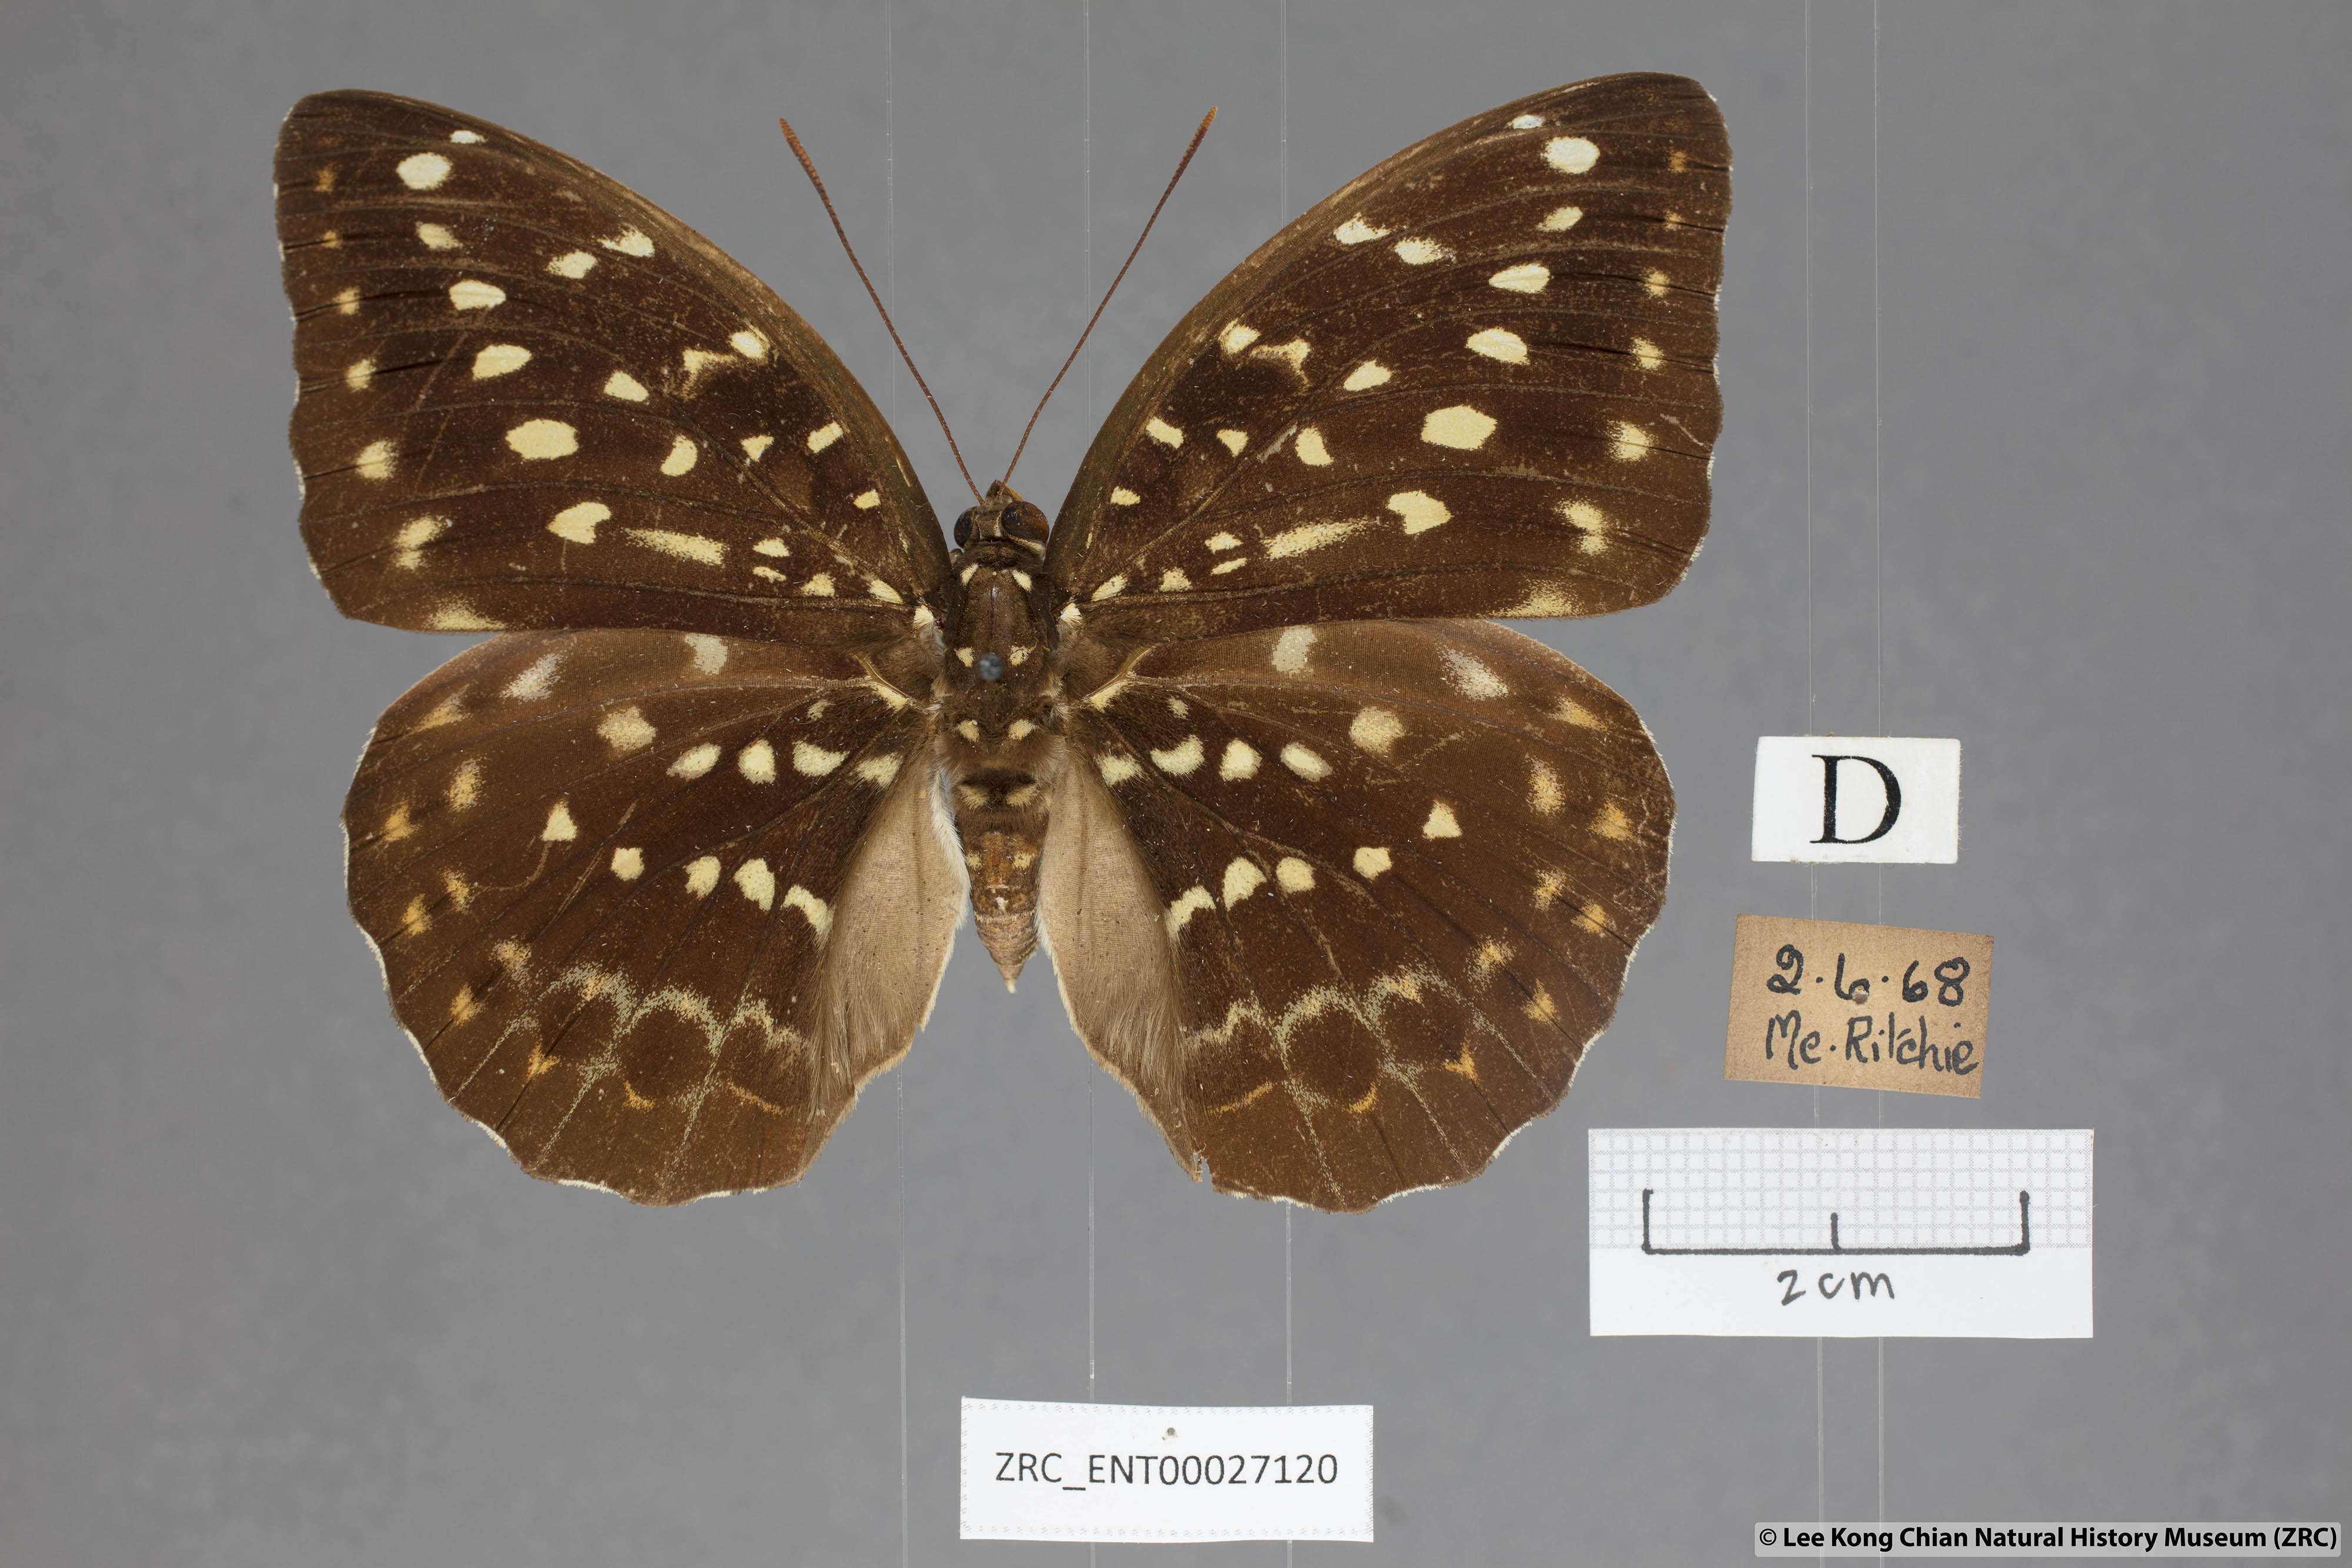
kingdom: Animalia
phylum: Arthropoda
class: Insecta
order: Lepidoptera
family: Nymphalidae
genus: Lexias
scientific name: Lexias pardalis
